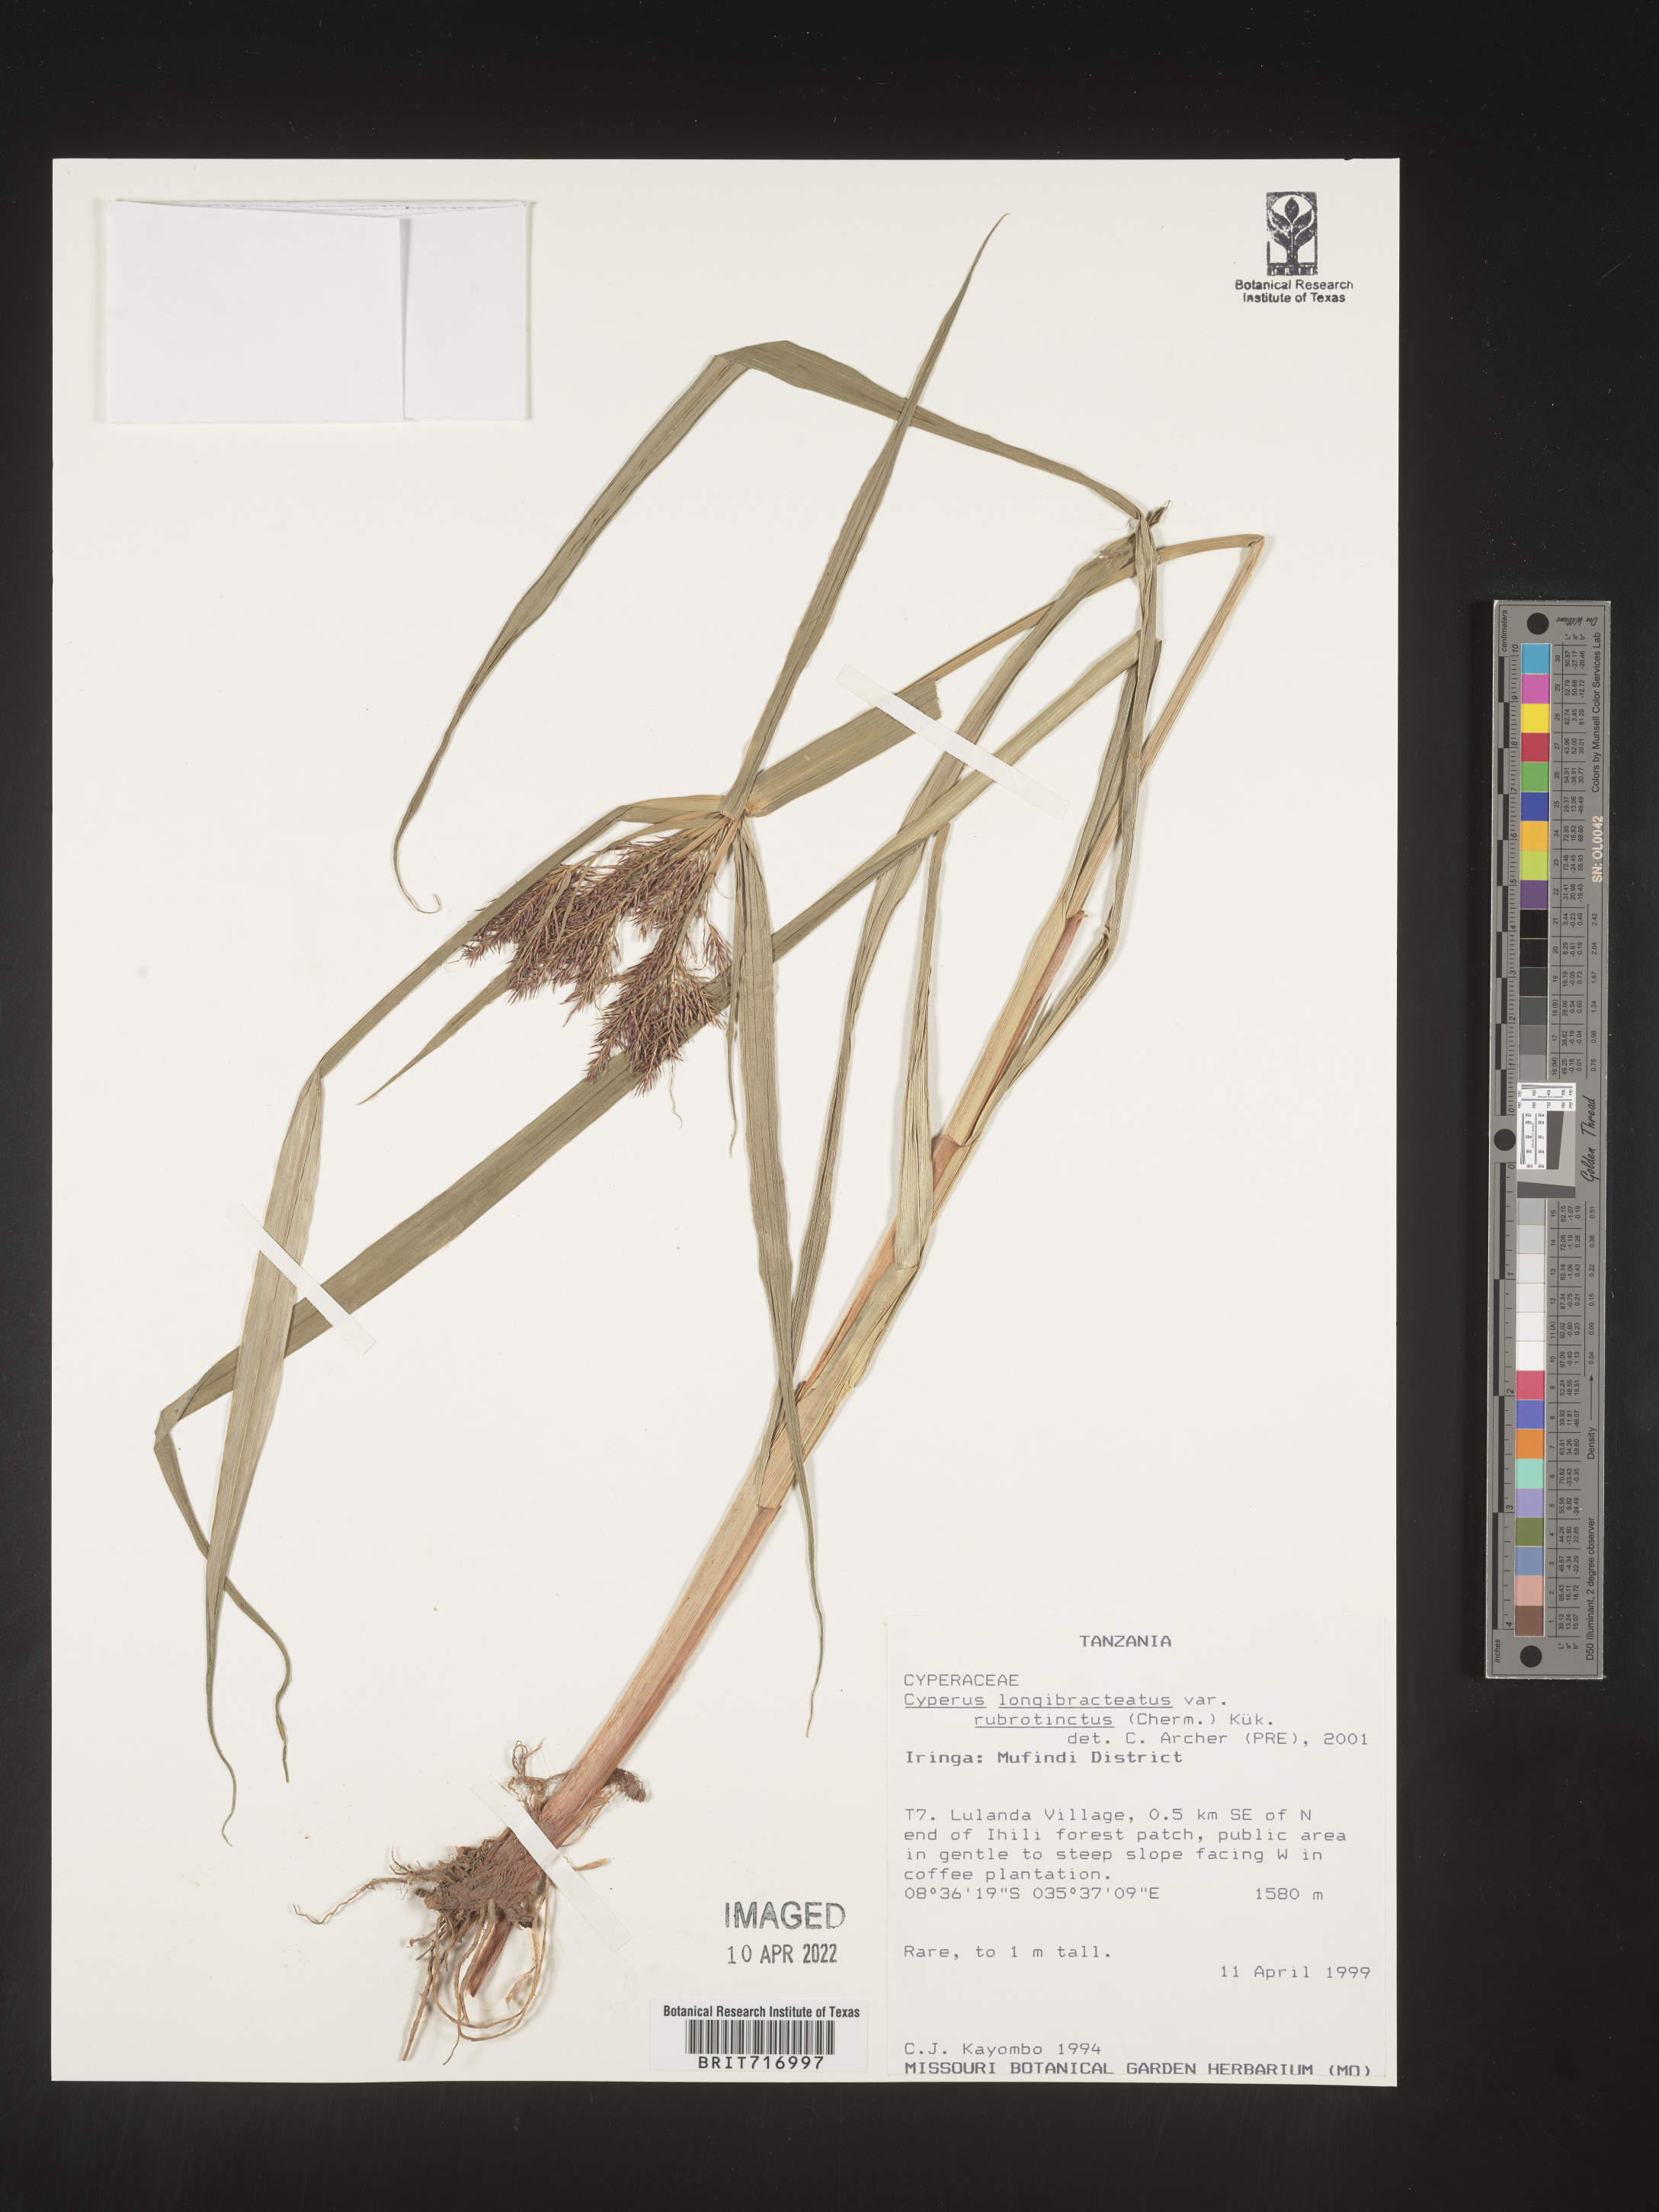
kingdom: Plantae
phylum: Tracheophyta
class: Liliopsida
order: Poales
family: Cyperaceae
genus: Cyperus
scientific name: Cyperus
